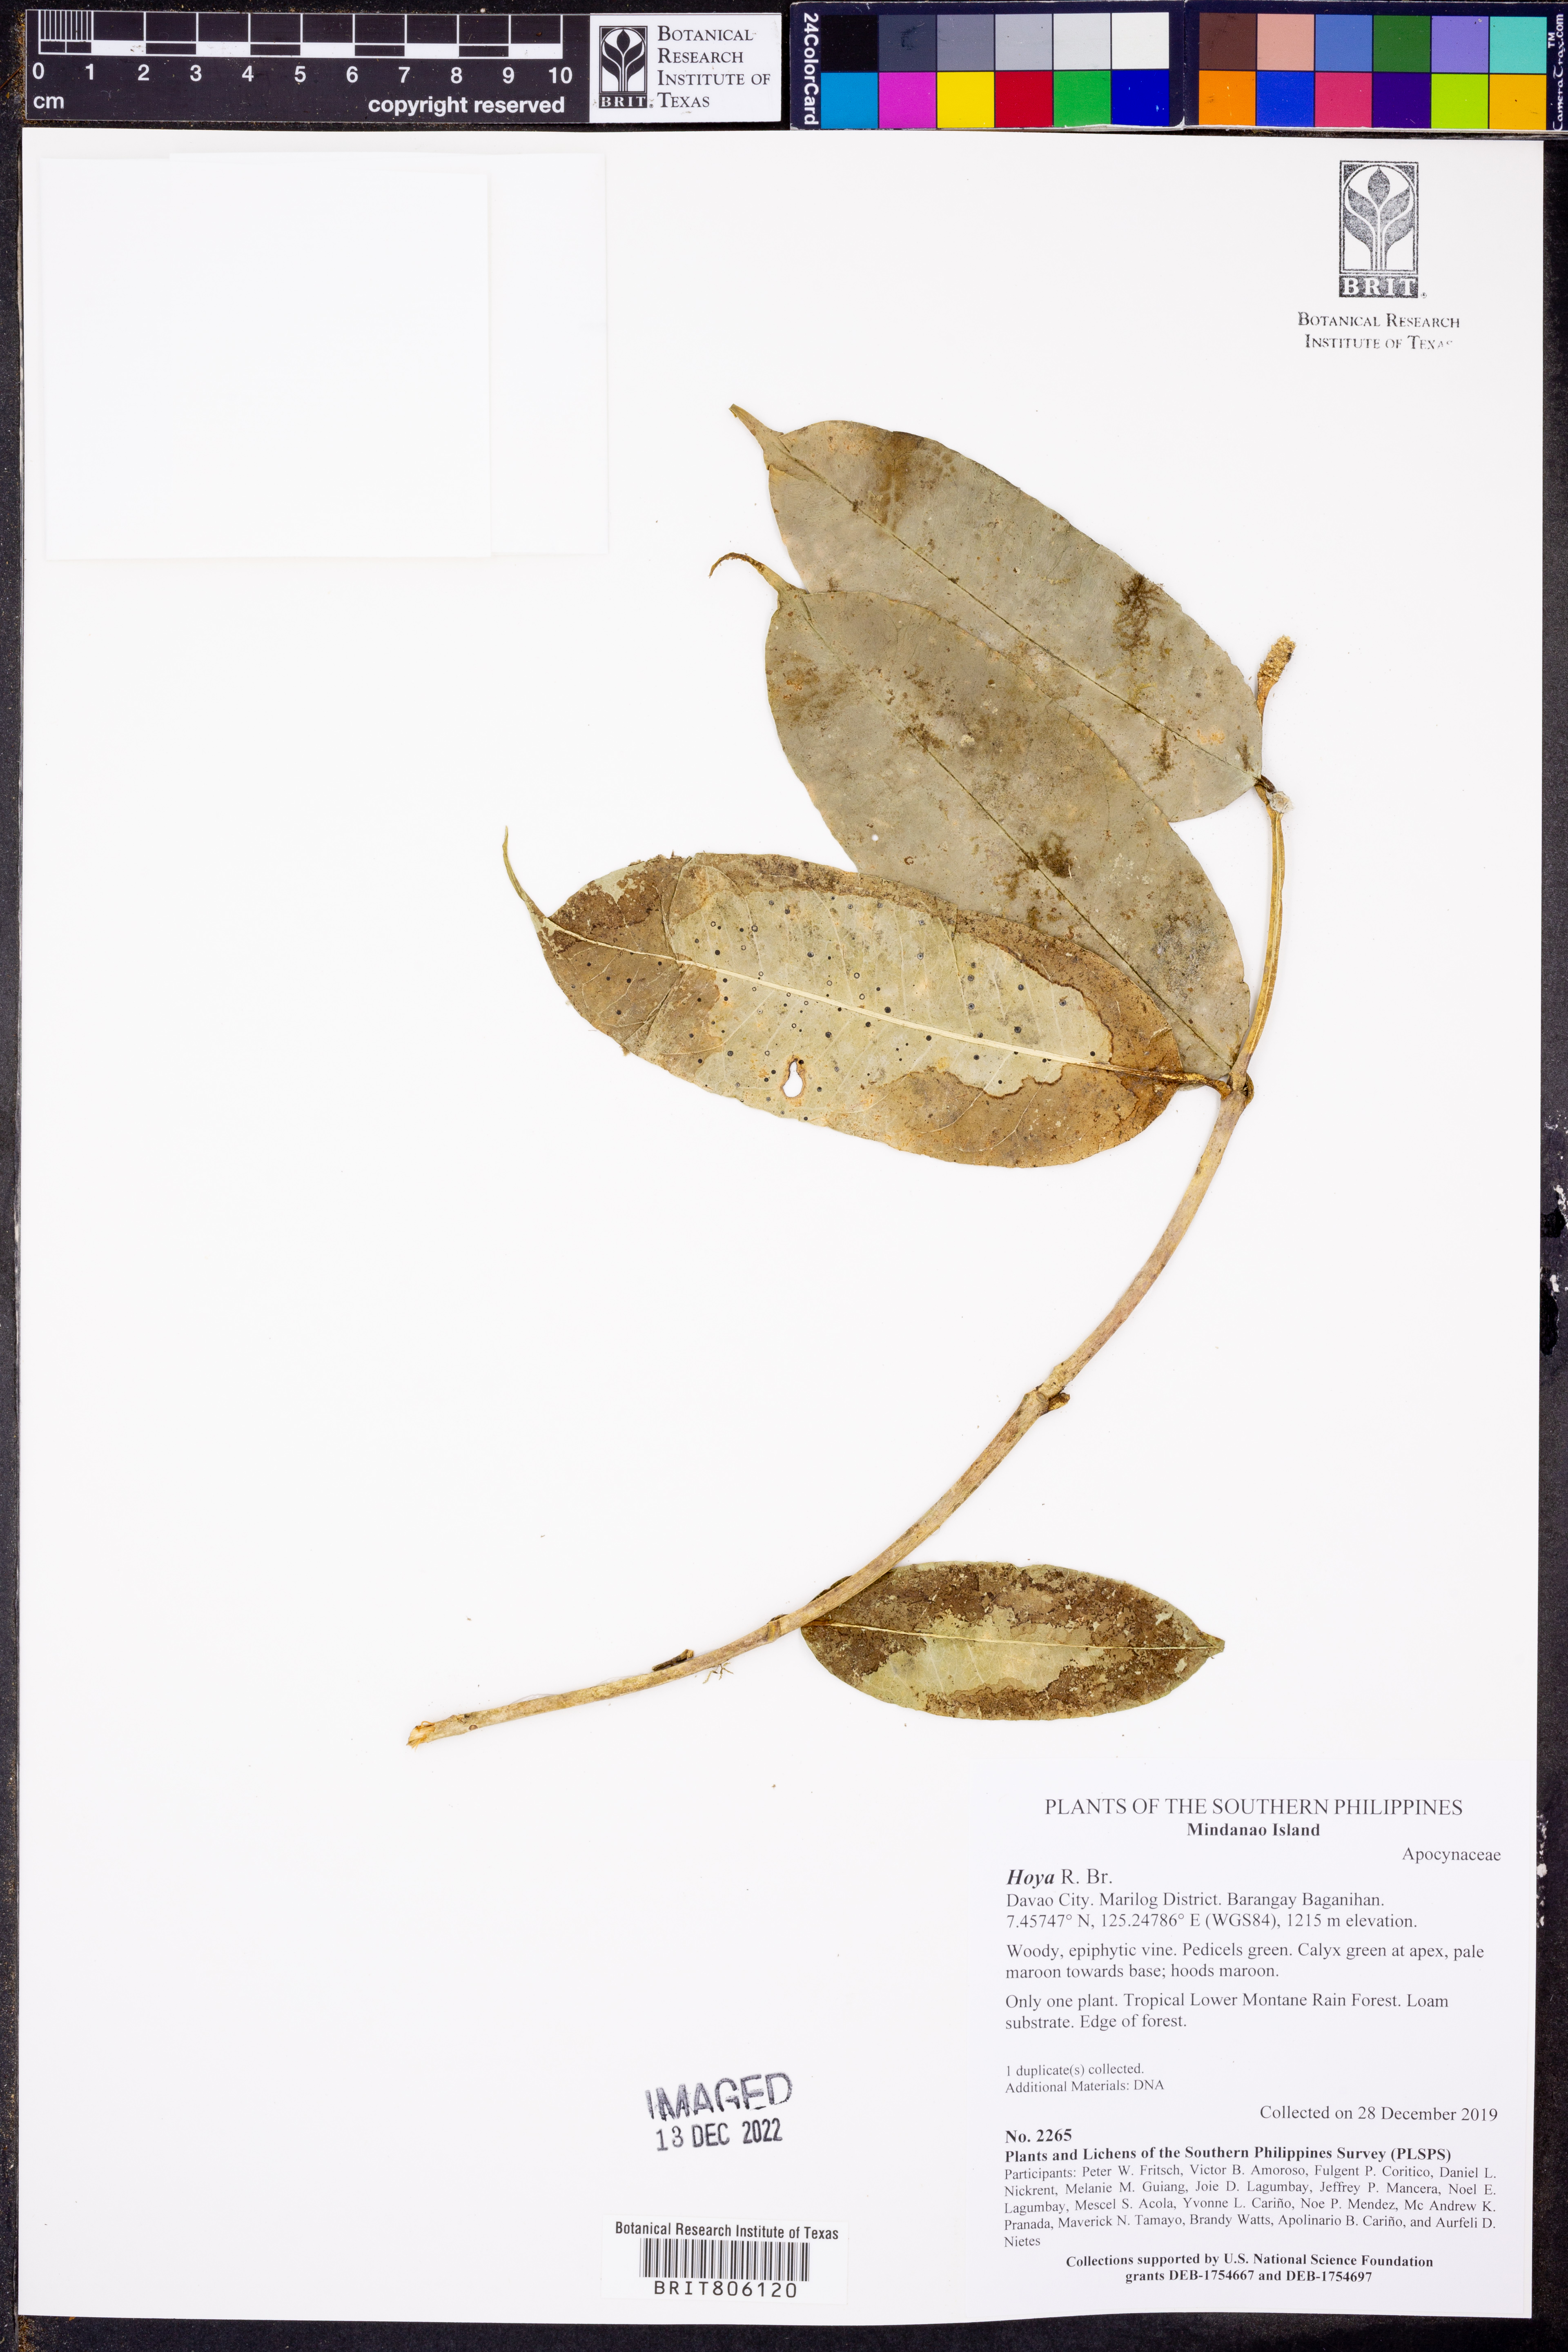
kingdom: Plantae
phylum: Tracheophyta
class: Magnoliopsida
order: Gentianales
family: Apocynaceae
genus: Hoya
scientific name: Hoya
